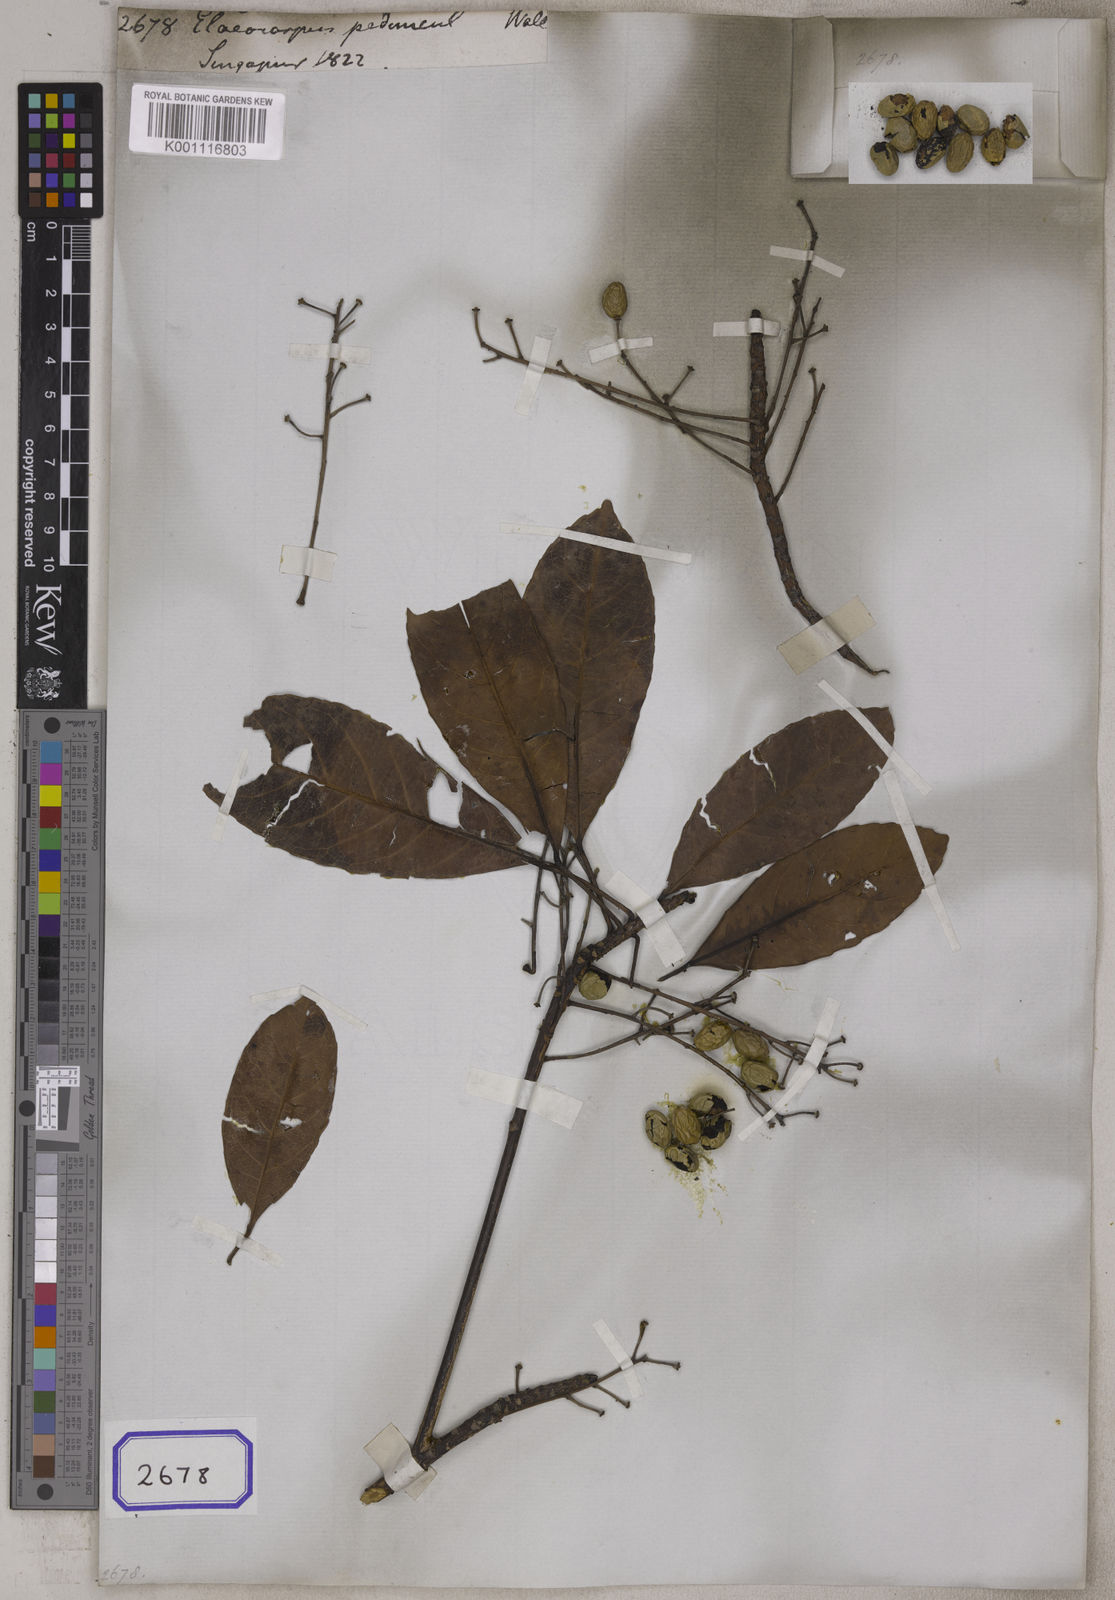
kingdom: Plantae
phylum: Tracheophyta
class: Magnoliopsida
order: Oxalidales
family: Elaeocarpaceae
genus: Elaeocarpus
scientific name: Elaeocarpus
